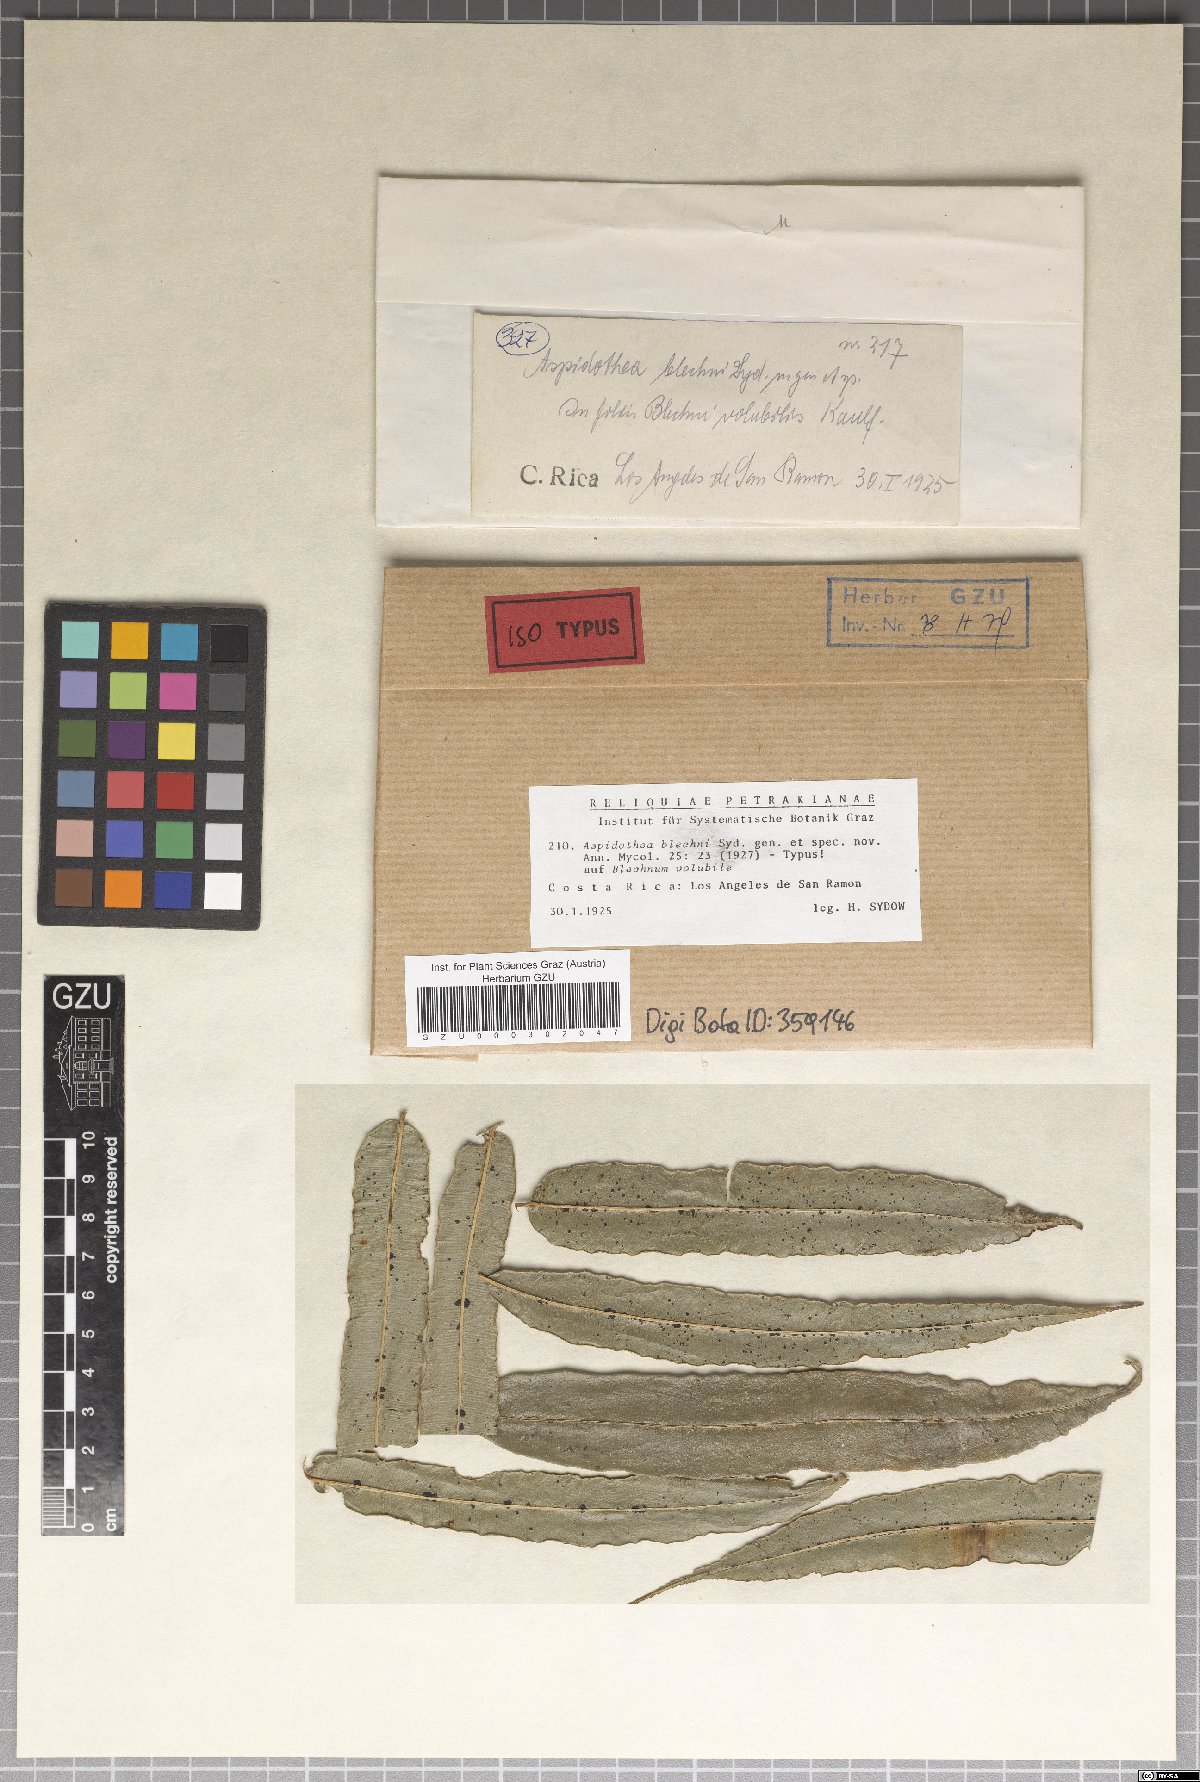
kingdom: Fungi
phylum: Ascomycota
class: Dothideomycetes
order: Asterinales
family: Parmulariaceae
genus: Inocyclus
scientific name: Inocyclus blechni
